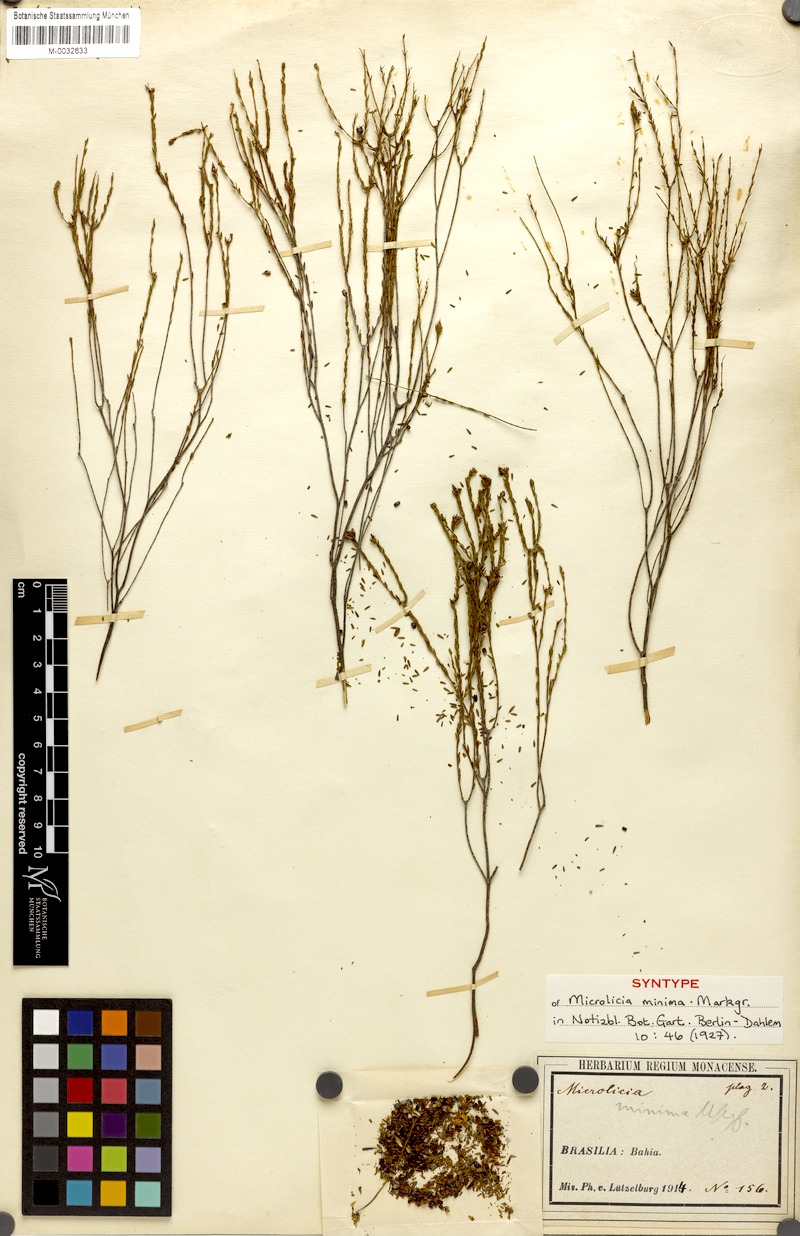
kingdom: Plantae
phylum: Tracheophyta
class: Magnoliopsida
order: Myrtales
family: Melastomataceae
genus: Microlicia
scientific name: Microlicia minima
